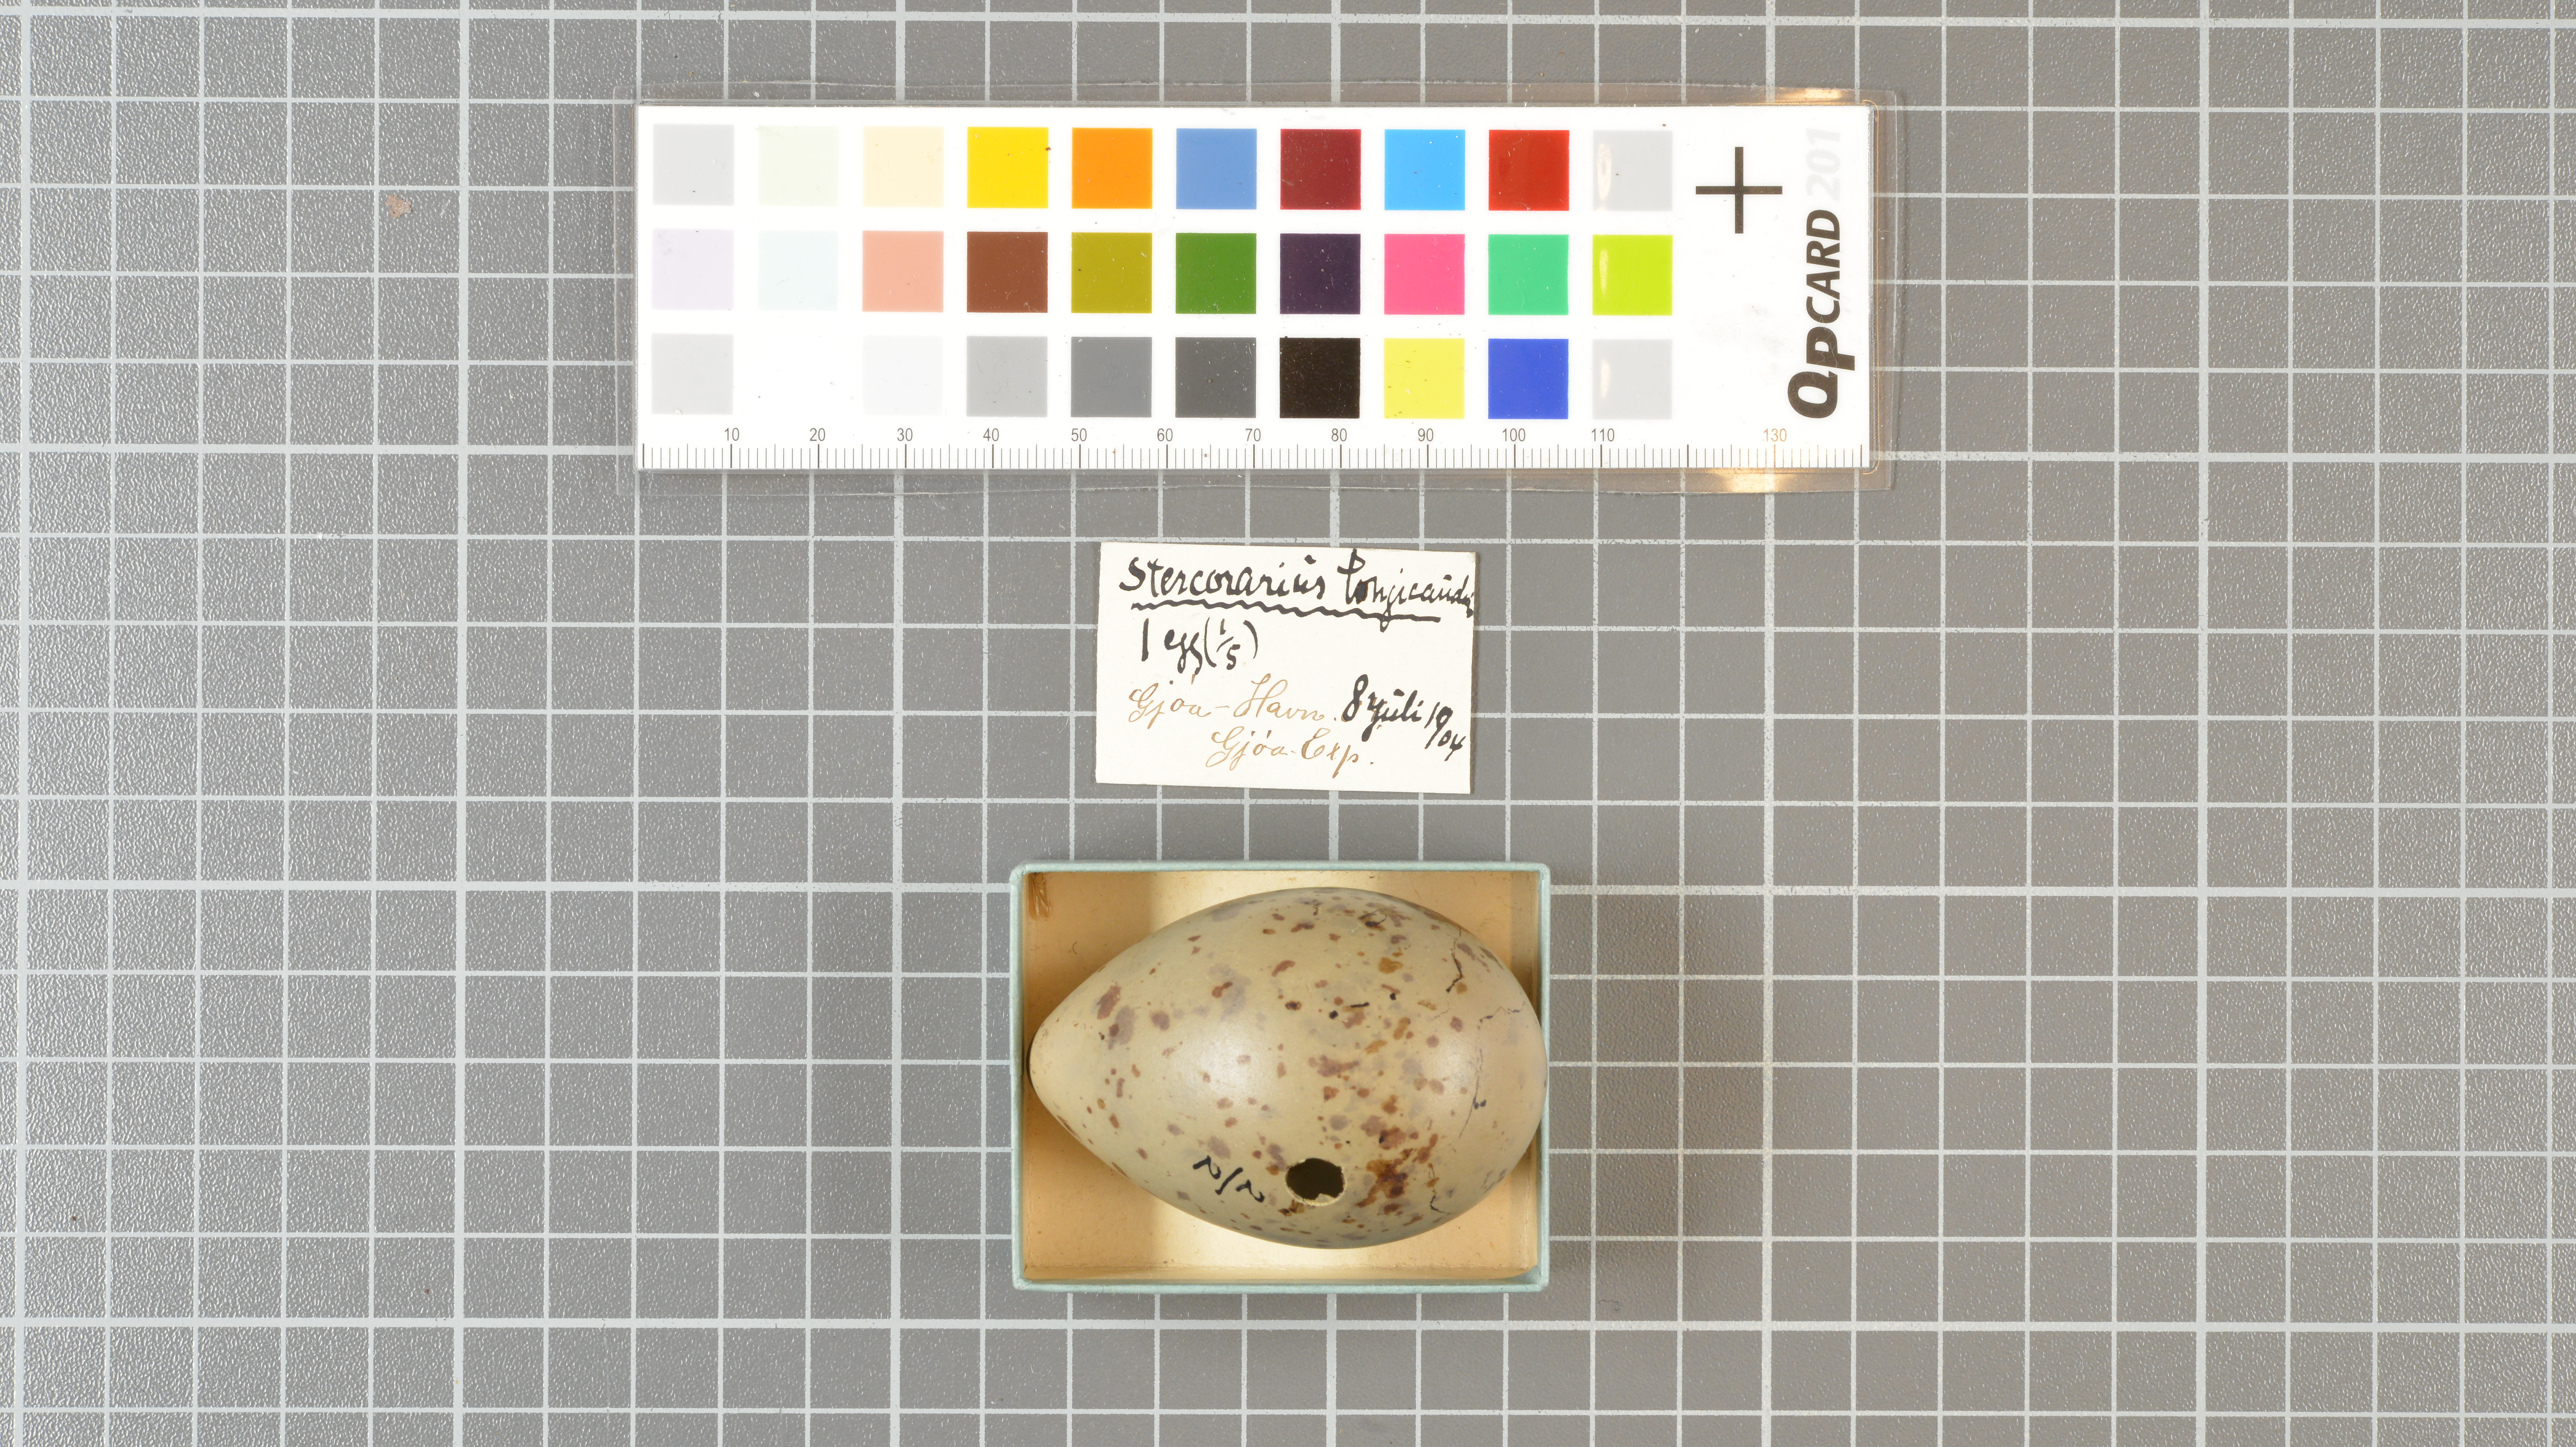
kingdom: Animalia
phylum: Chordata
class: Aves
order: Charadriiformes
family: Stercorariidae
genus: Stercorarius
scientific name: Stercorarius longicaudus
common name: Long-tailed jaeger
